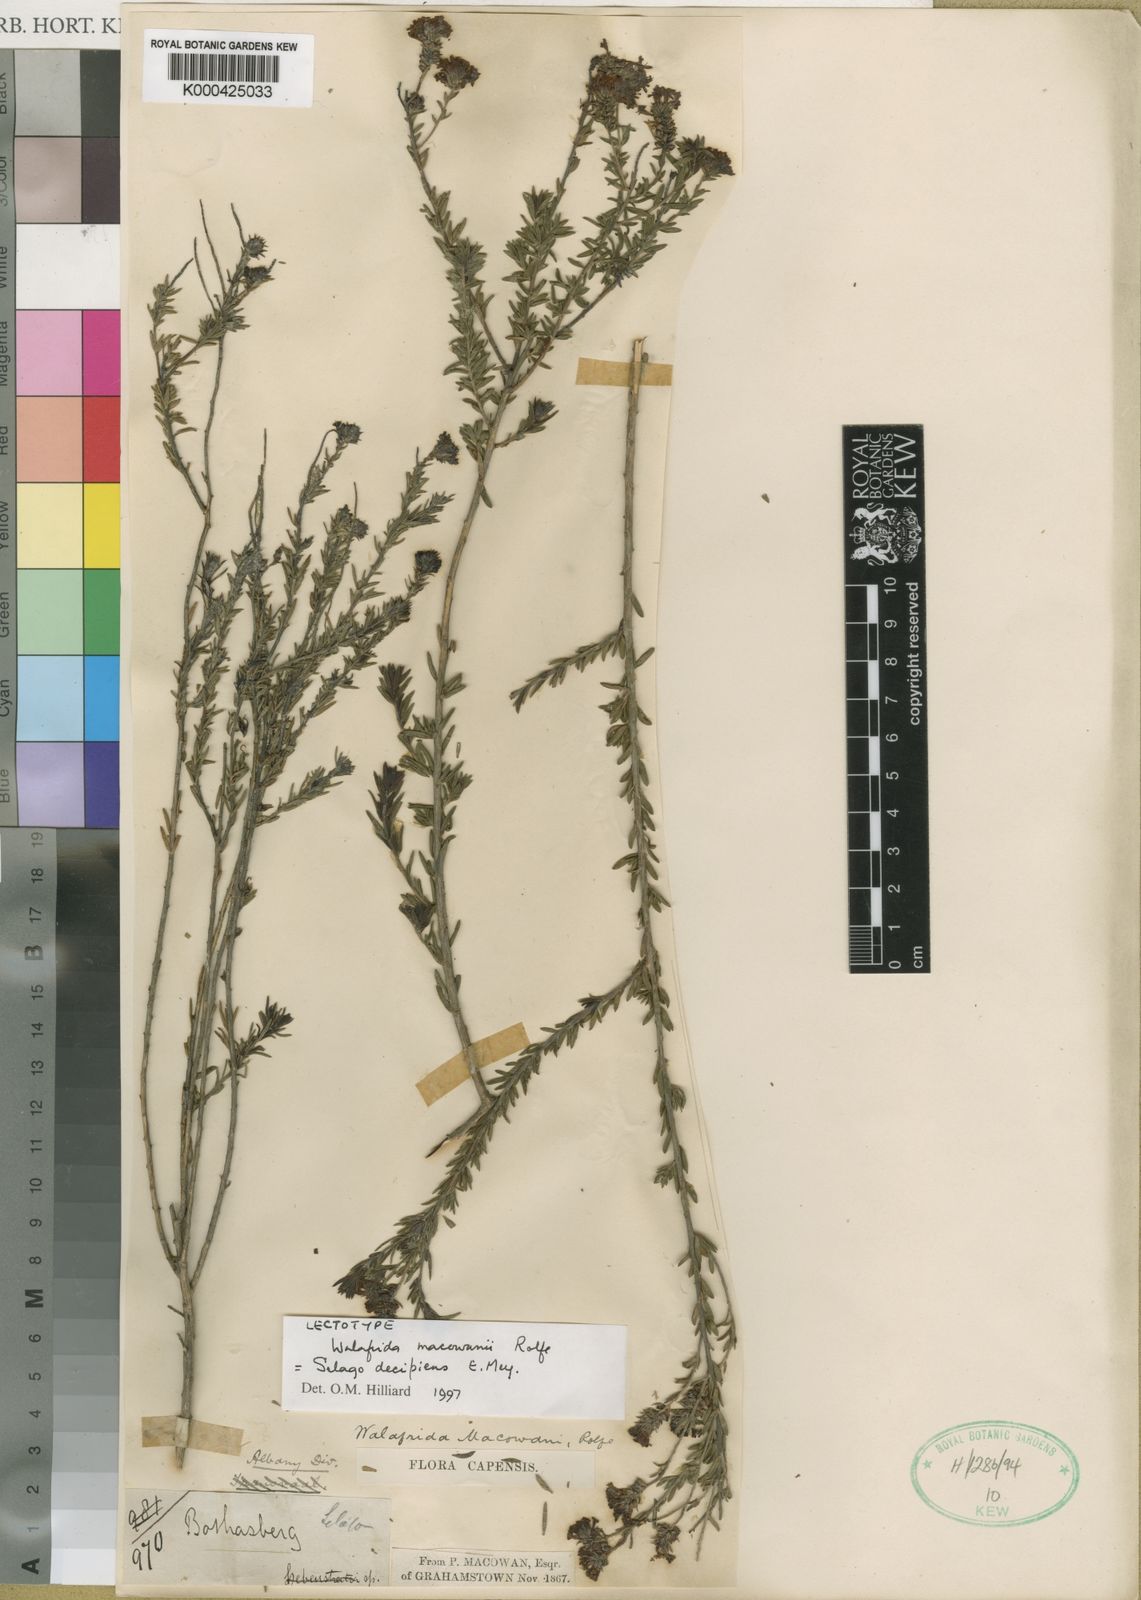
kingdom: Plantae
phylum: Tracheophyta
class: Magnoliopsida
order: Lamiales
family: Scrophulariaceae
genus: Selago
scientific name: Selago
